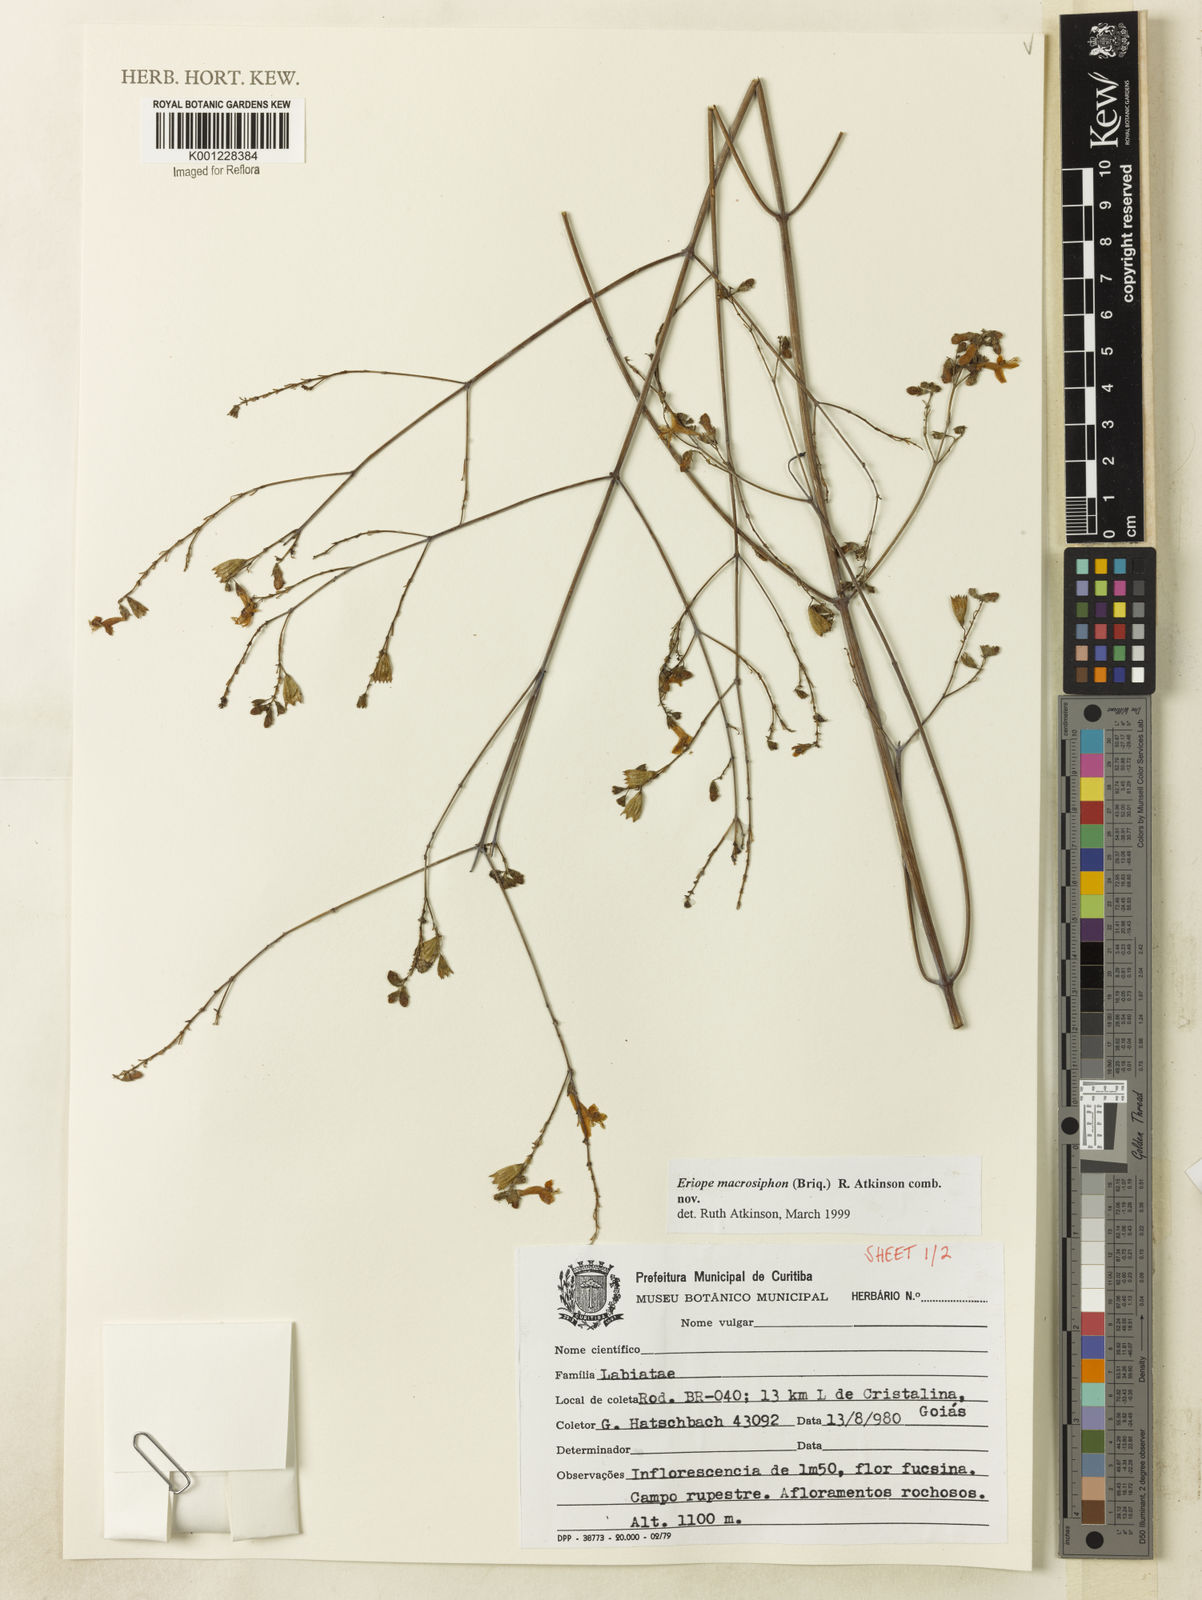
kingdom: Plantae
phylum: Tracheophyta
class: Magnoliopsida
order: Lamiales
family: Lamiaceae
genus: Hypenia
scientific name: Hypenia macrosiphon
